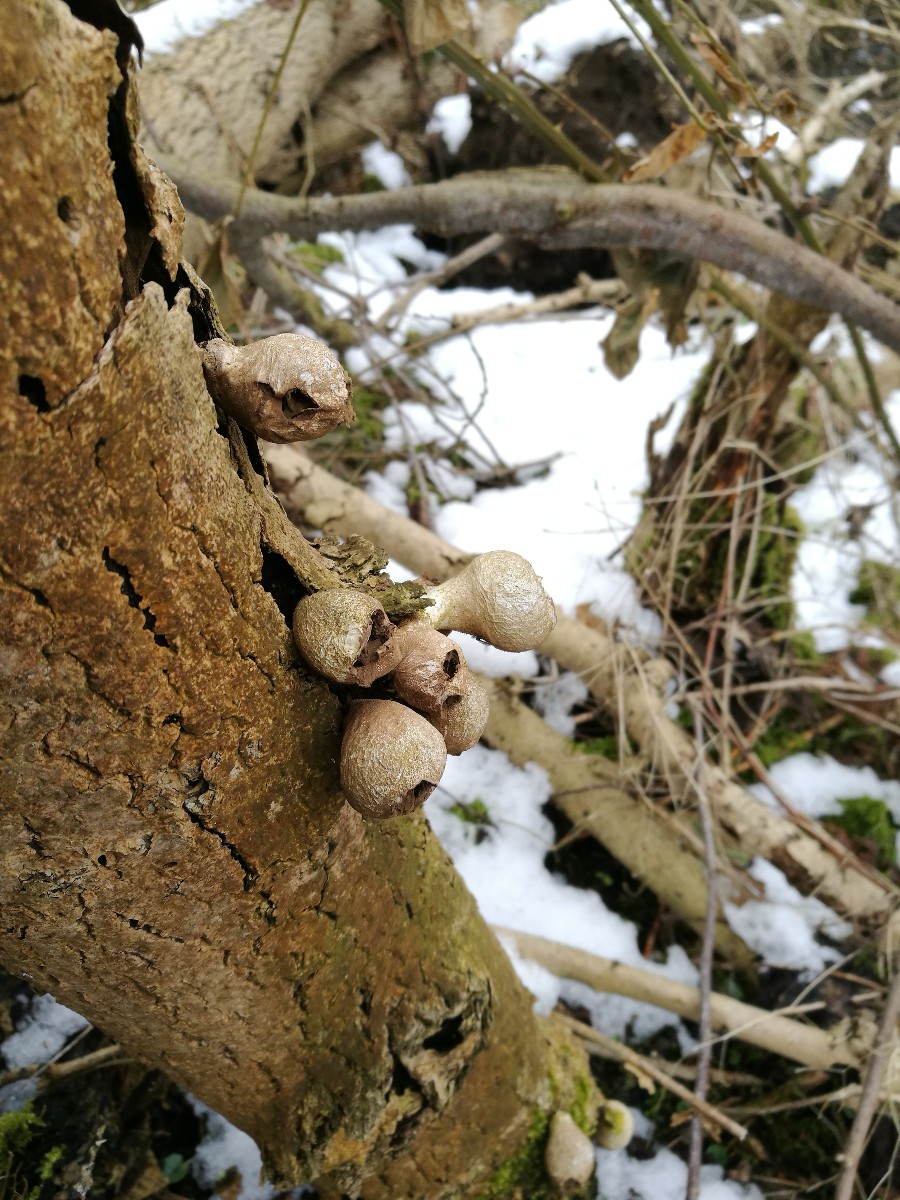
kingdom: Fungi
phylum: Basidiomycota
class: Agaricomycetes
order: Agaricales
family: Lycoperdaceae
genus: Apioperdon
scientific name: Apioperdon pyriforme
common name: pære-støvbold
